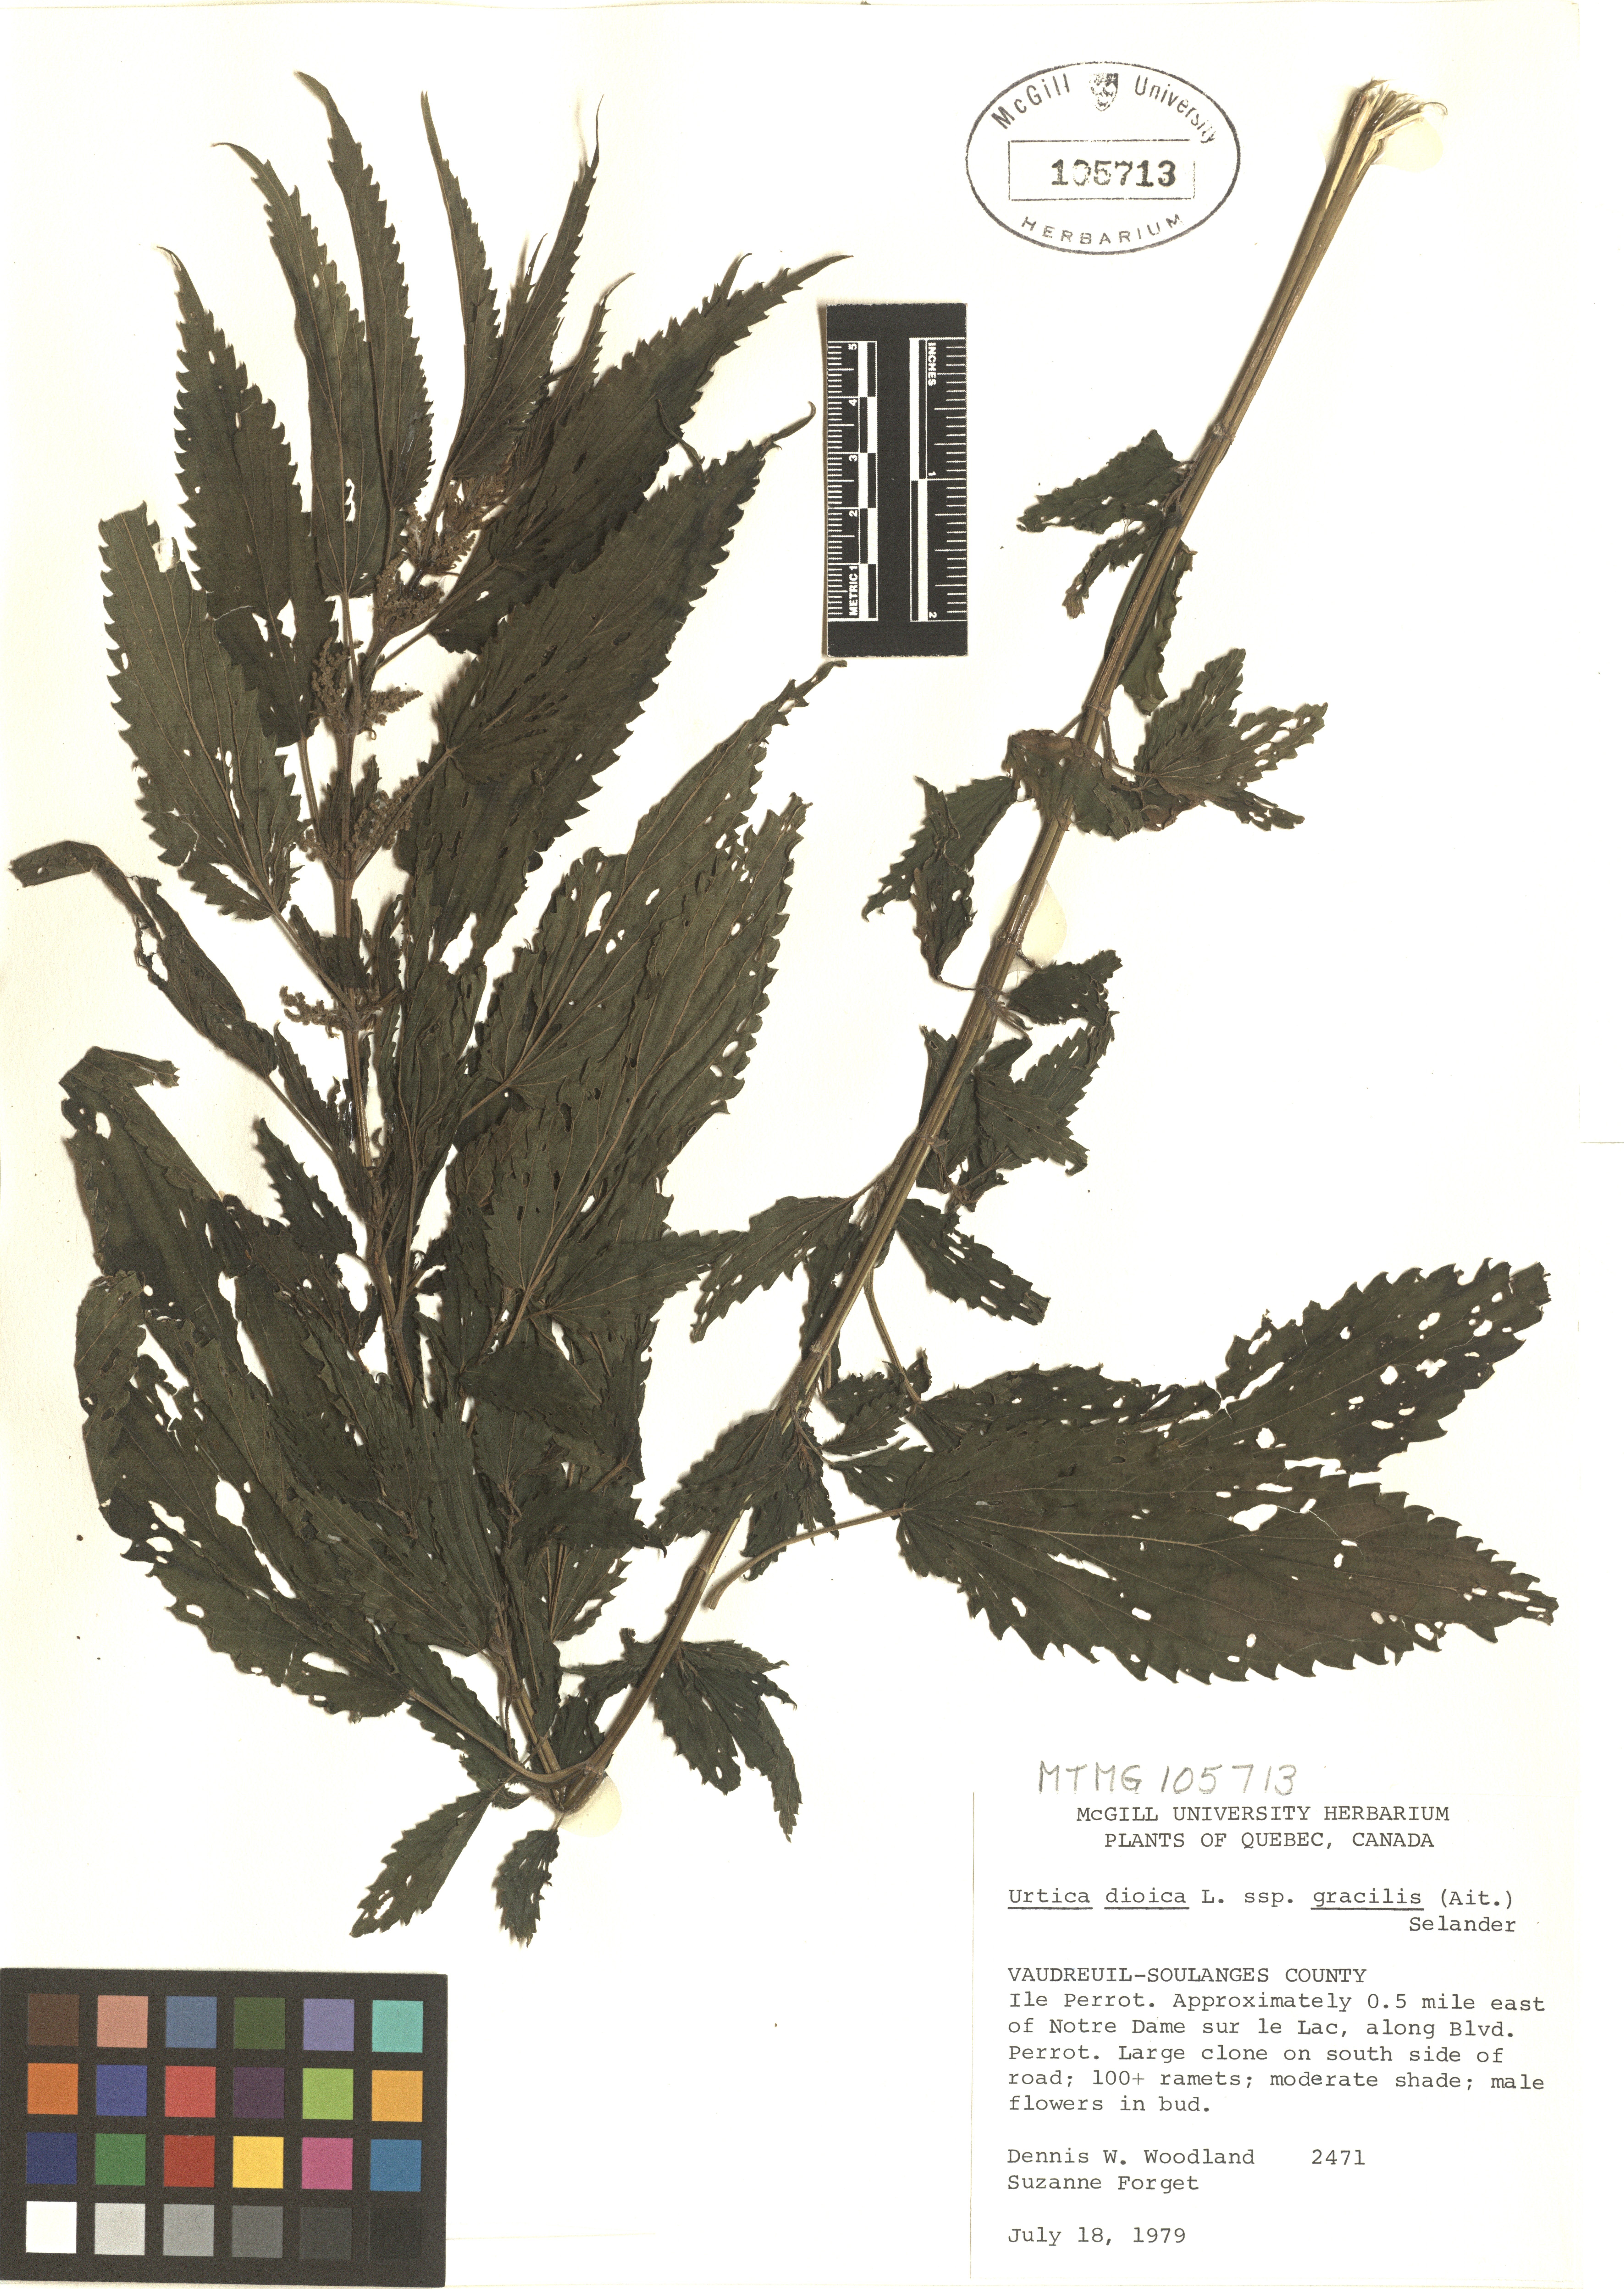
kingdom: Plantae
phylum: Tracheophyta
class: Magnoliopsida
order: Rosales
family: Urticaceae
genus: Urtica
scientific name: Urtica gracilis
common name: Slender stinging nettle
